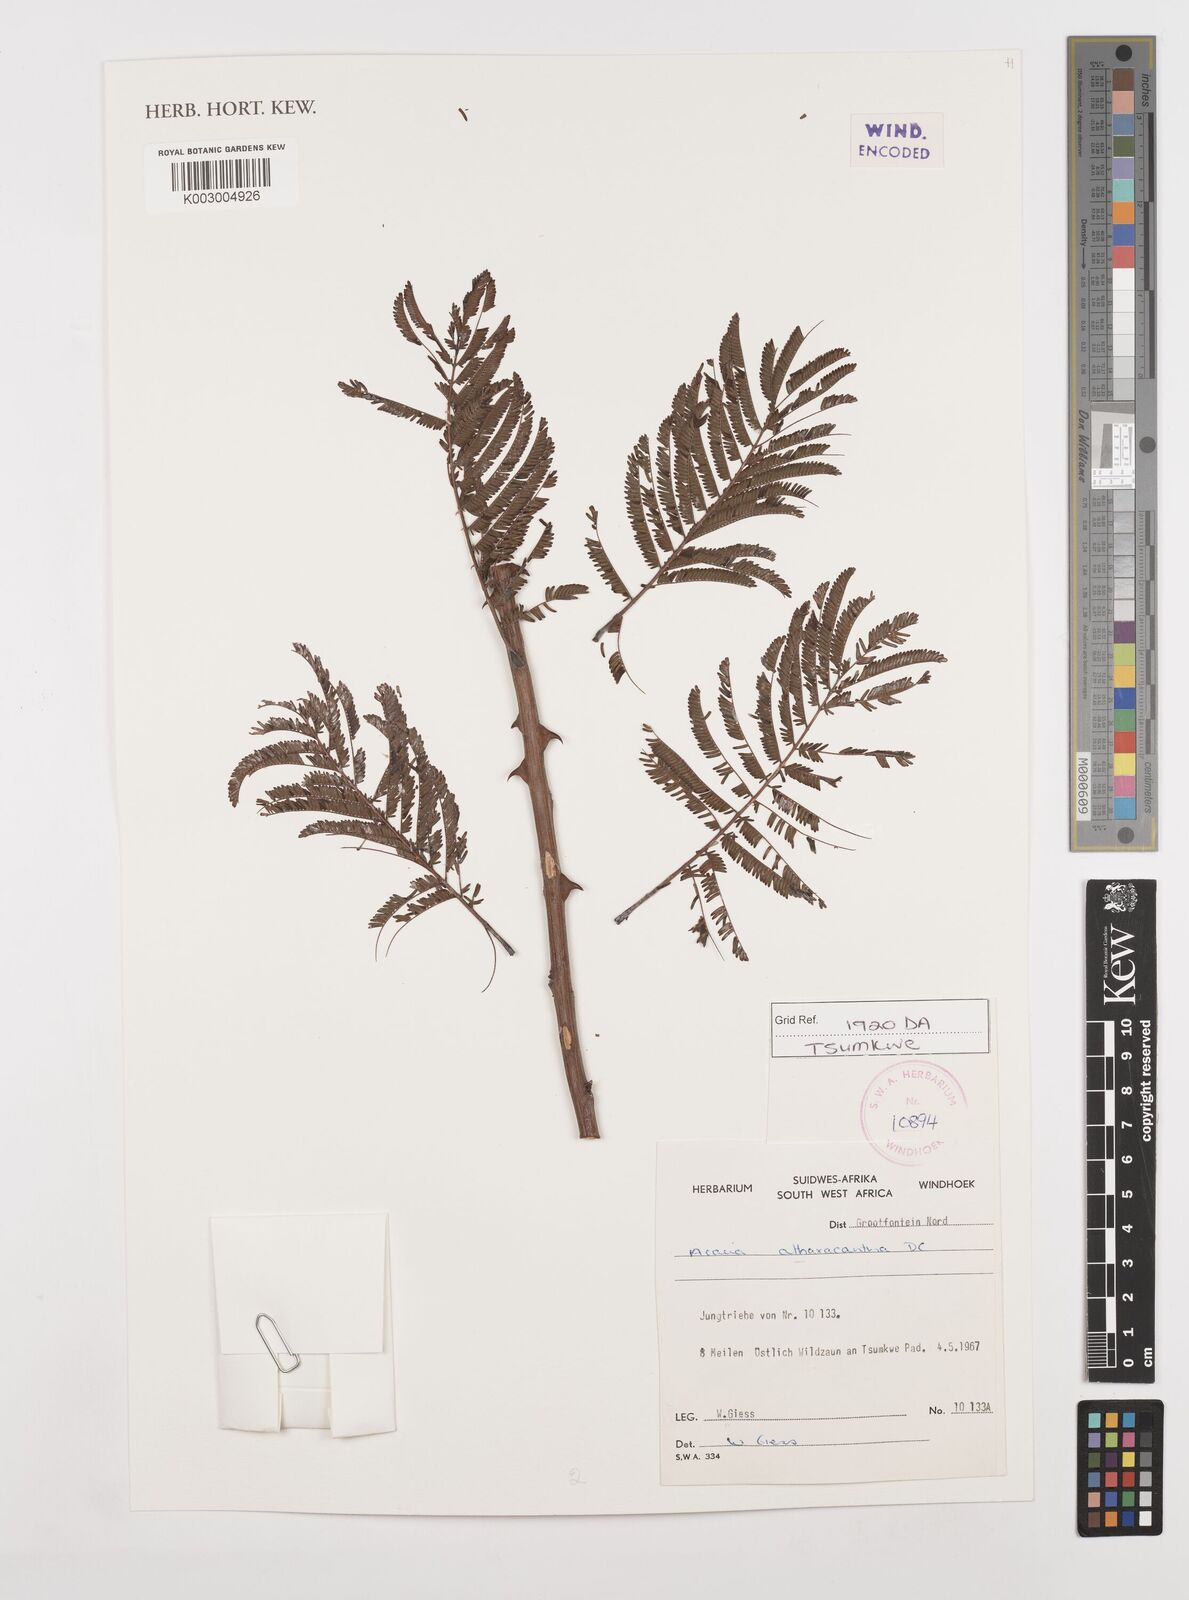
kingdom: Plantae
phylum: Tracheophyta
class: Magnoliopsida
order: Fabales
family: Fabaceae
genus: Senegalia
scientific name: Senegalia ataxacantha
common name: Flame acacia
